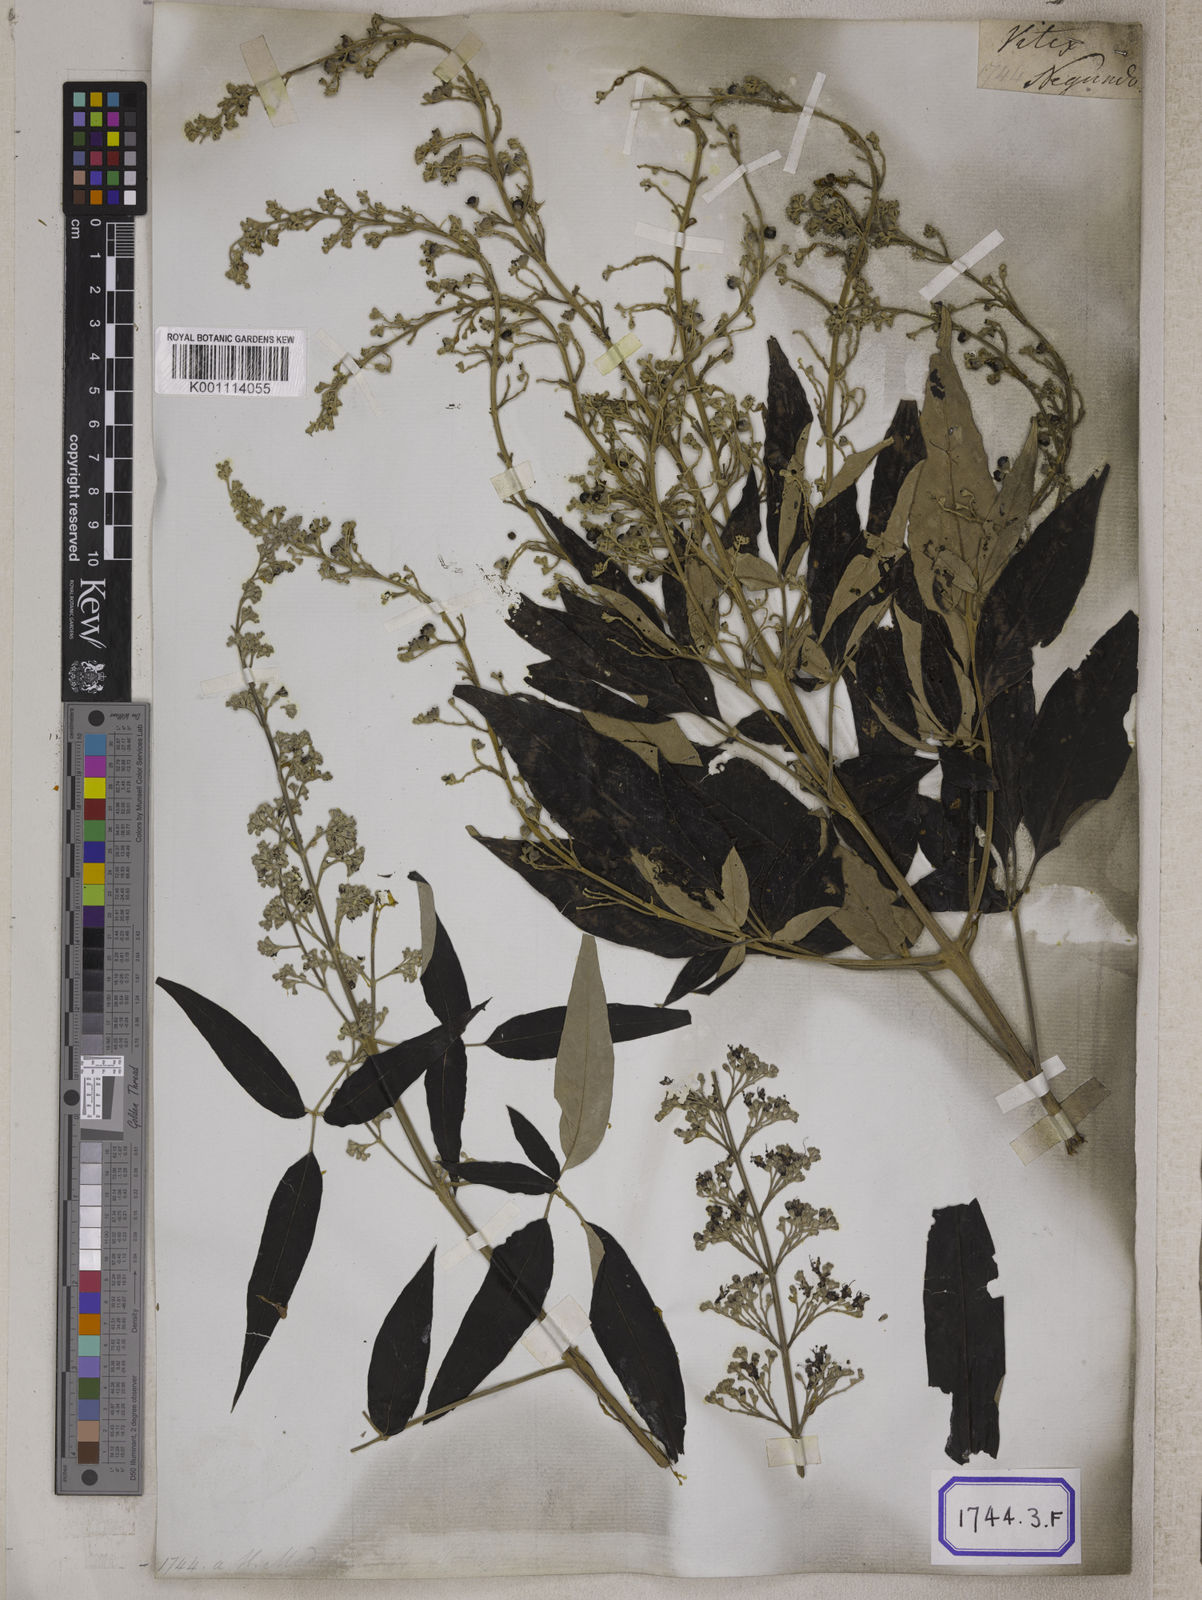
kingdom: Plantae
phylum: Tracheophyta
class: Magnoliopsida
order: Lamiales
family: Lamiaceae
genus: Vitex
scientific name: Vitex negundo
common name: Chinese chastetree
